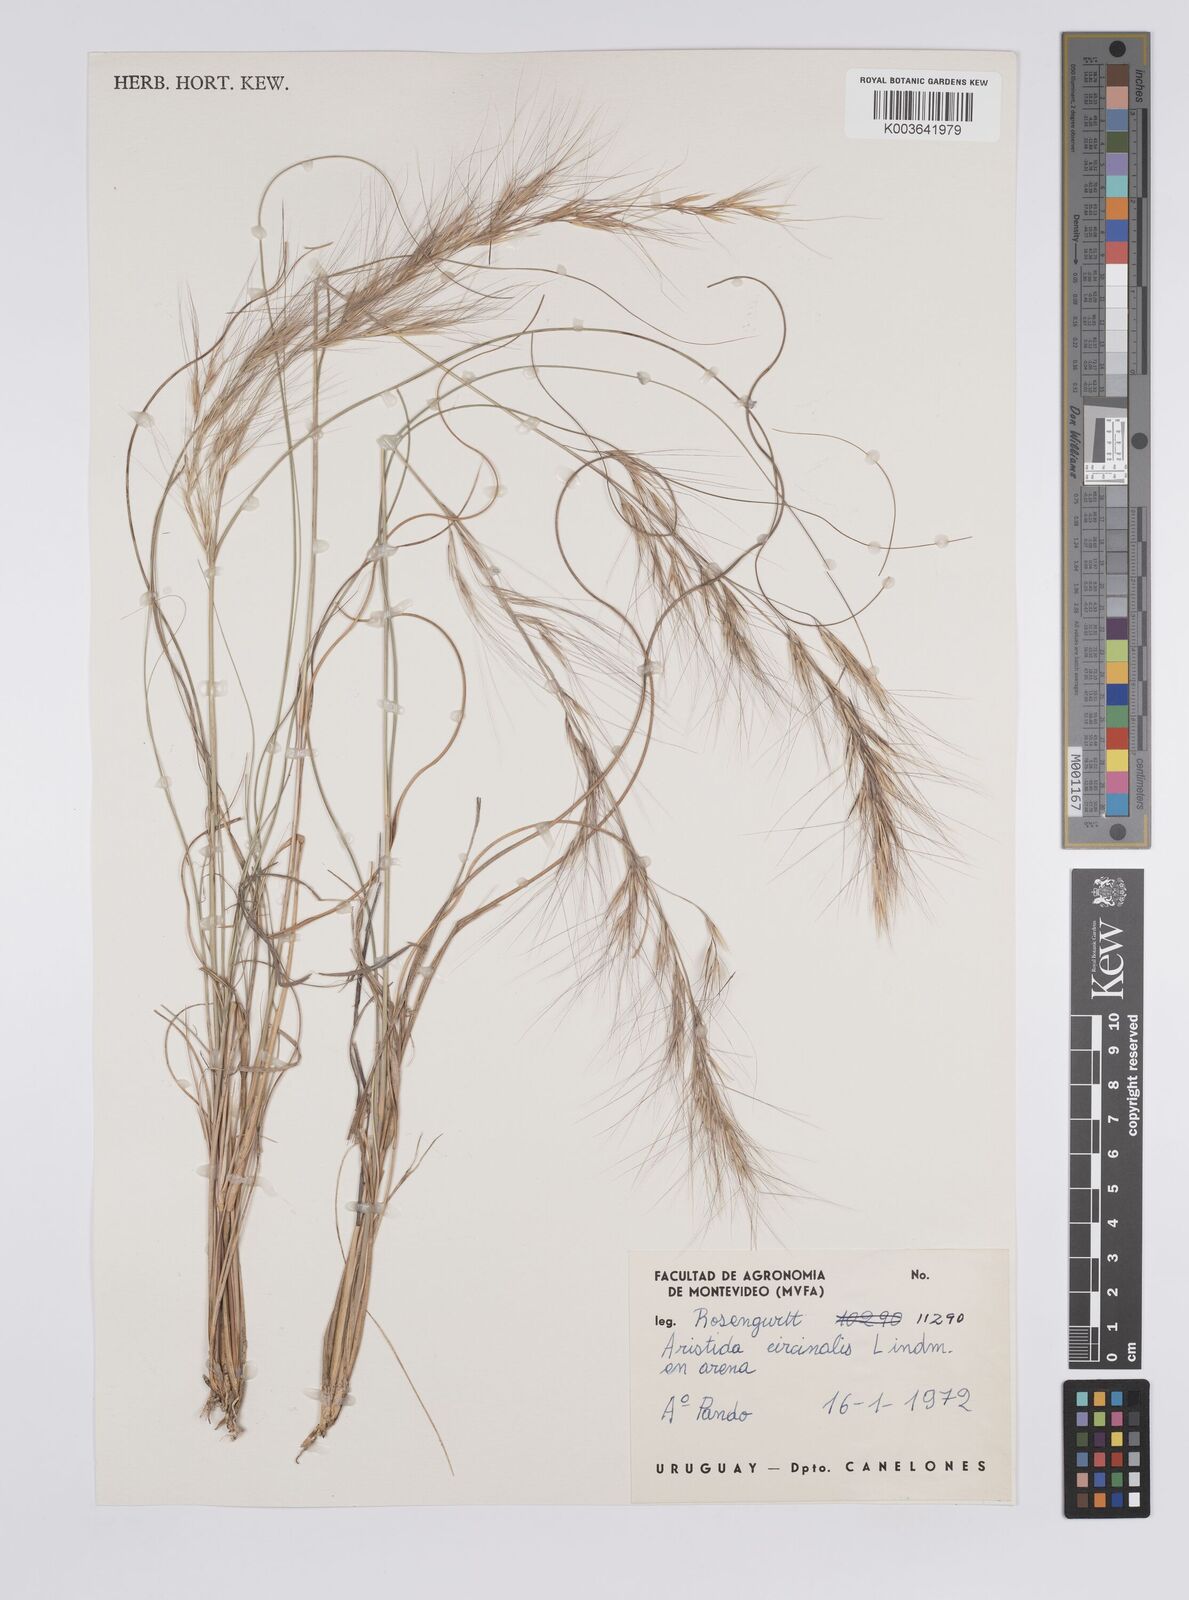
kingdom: Plantae
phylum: Tracheophyta
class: Liliopsida
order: Poales
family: Poaceae
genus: Aristida
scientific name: Aristida circinalis
